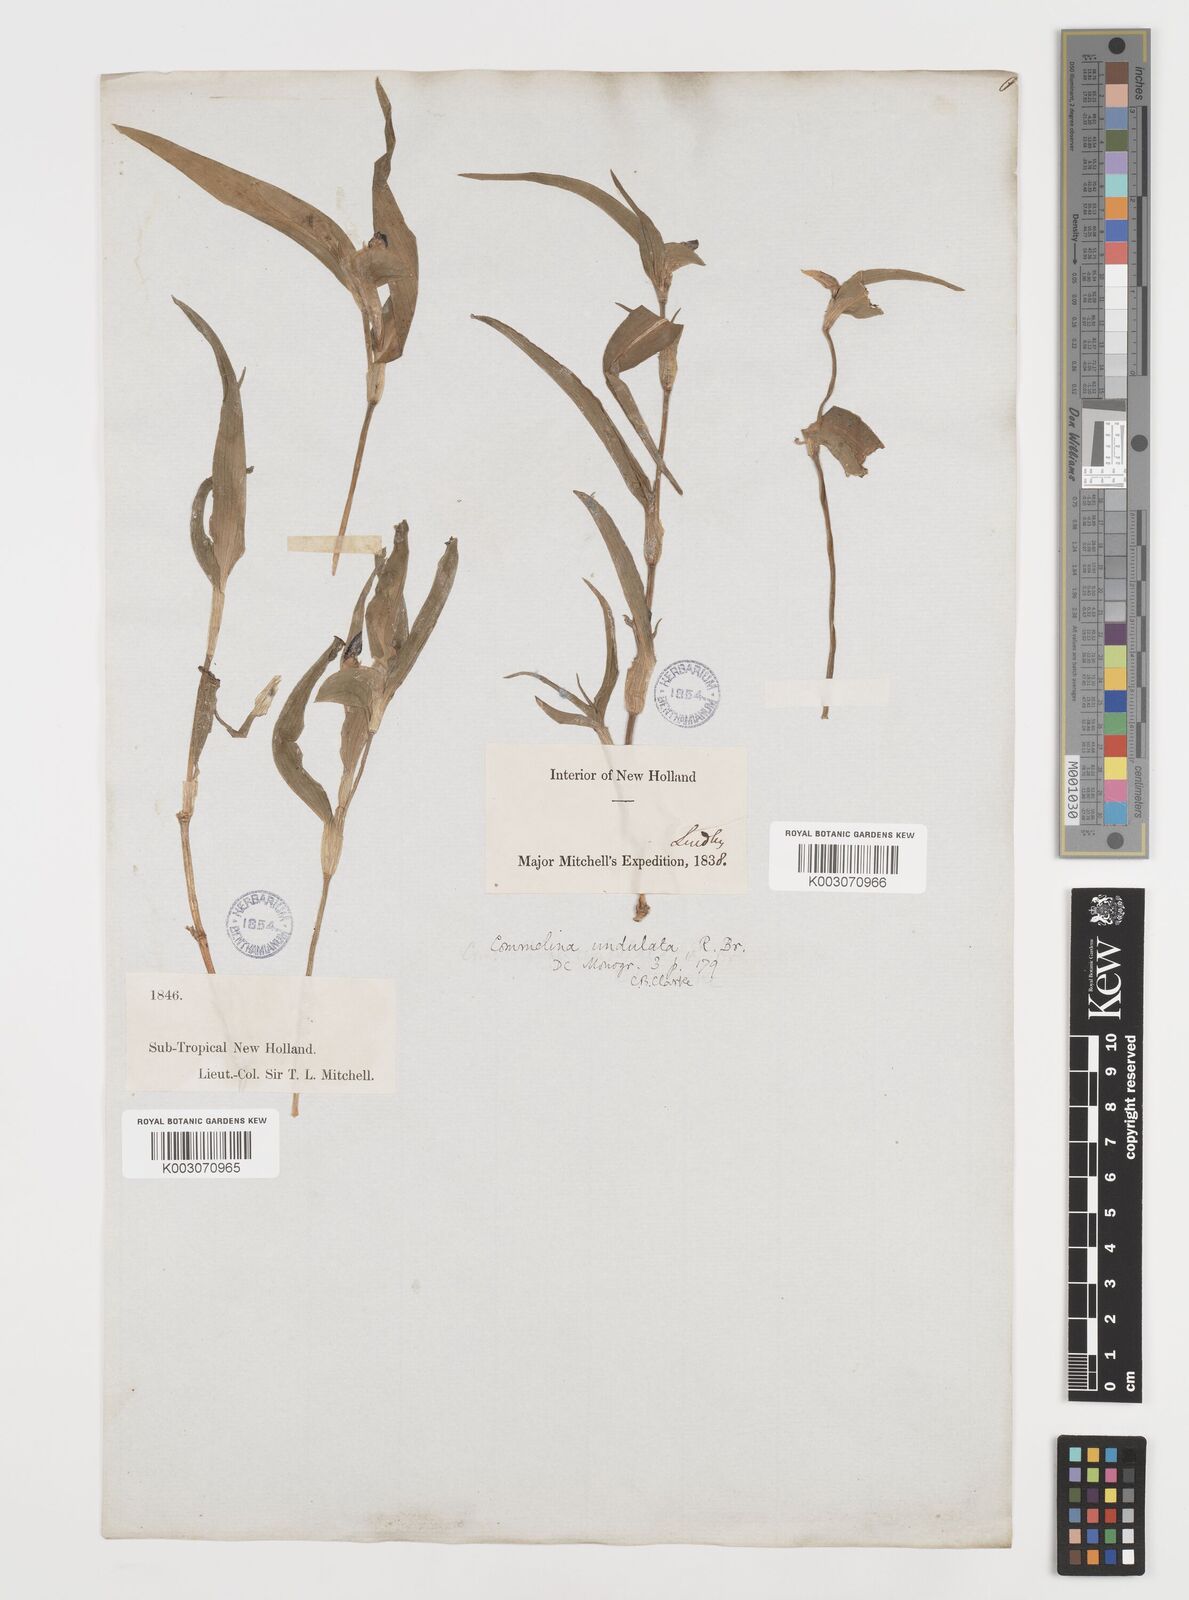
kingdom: Plantae
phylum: Tracheophyta
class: Liliopsida
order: Commelinales
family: Commelinaceae
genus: Commelina
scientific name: Commelina undulata
